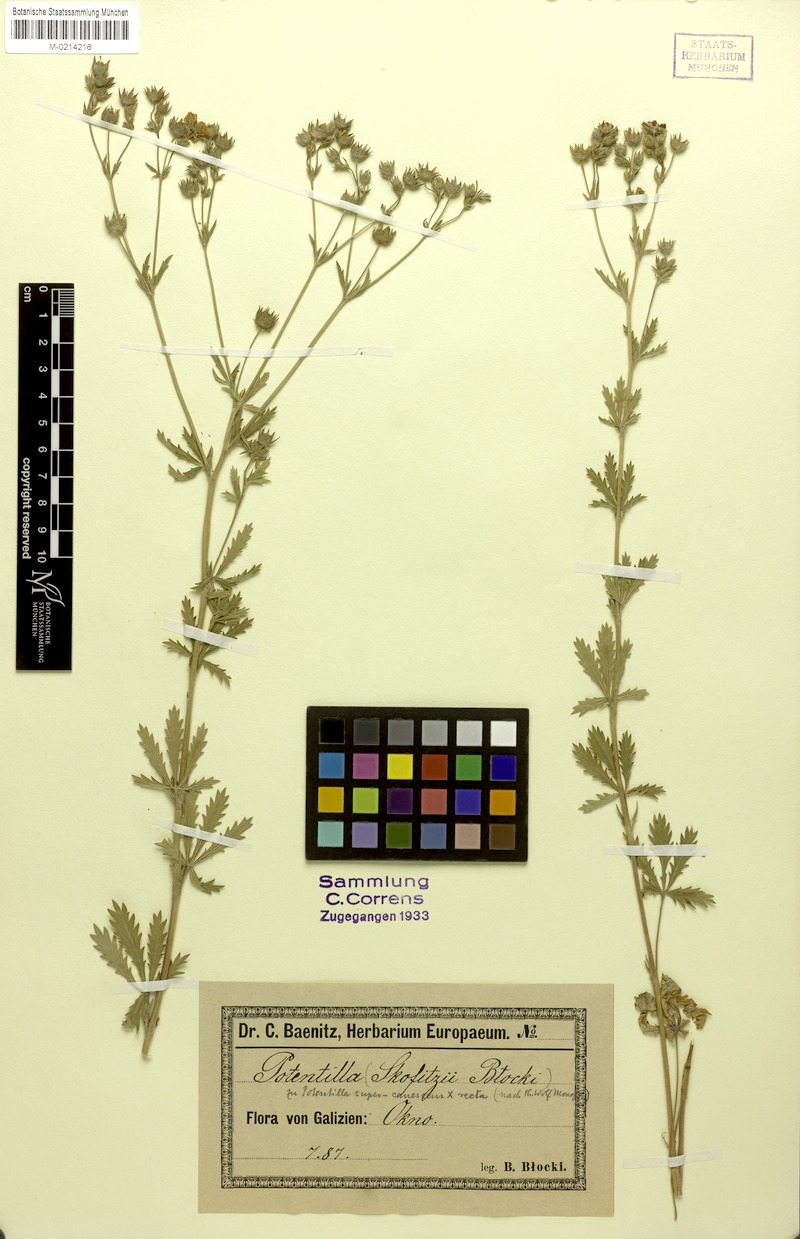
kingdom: Plantae
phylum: Tracheophyta
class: Magnoliopsida
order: Rosales
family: Rosaceae
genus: Potentilla
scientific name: Potentilla
